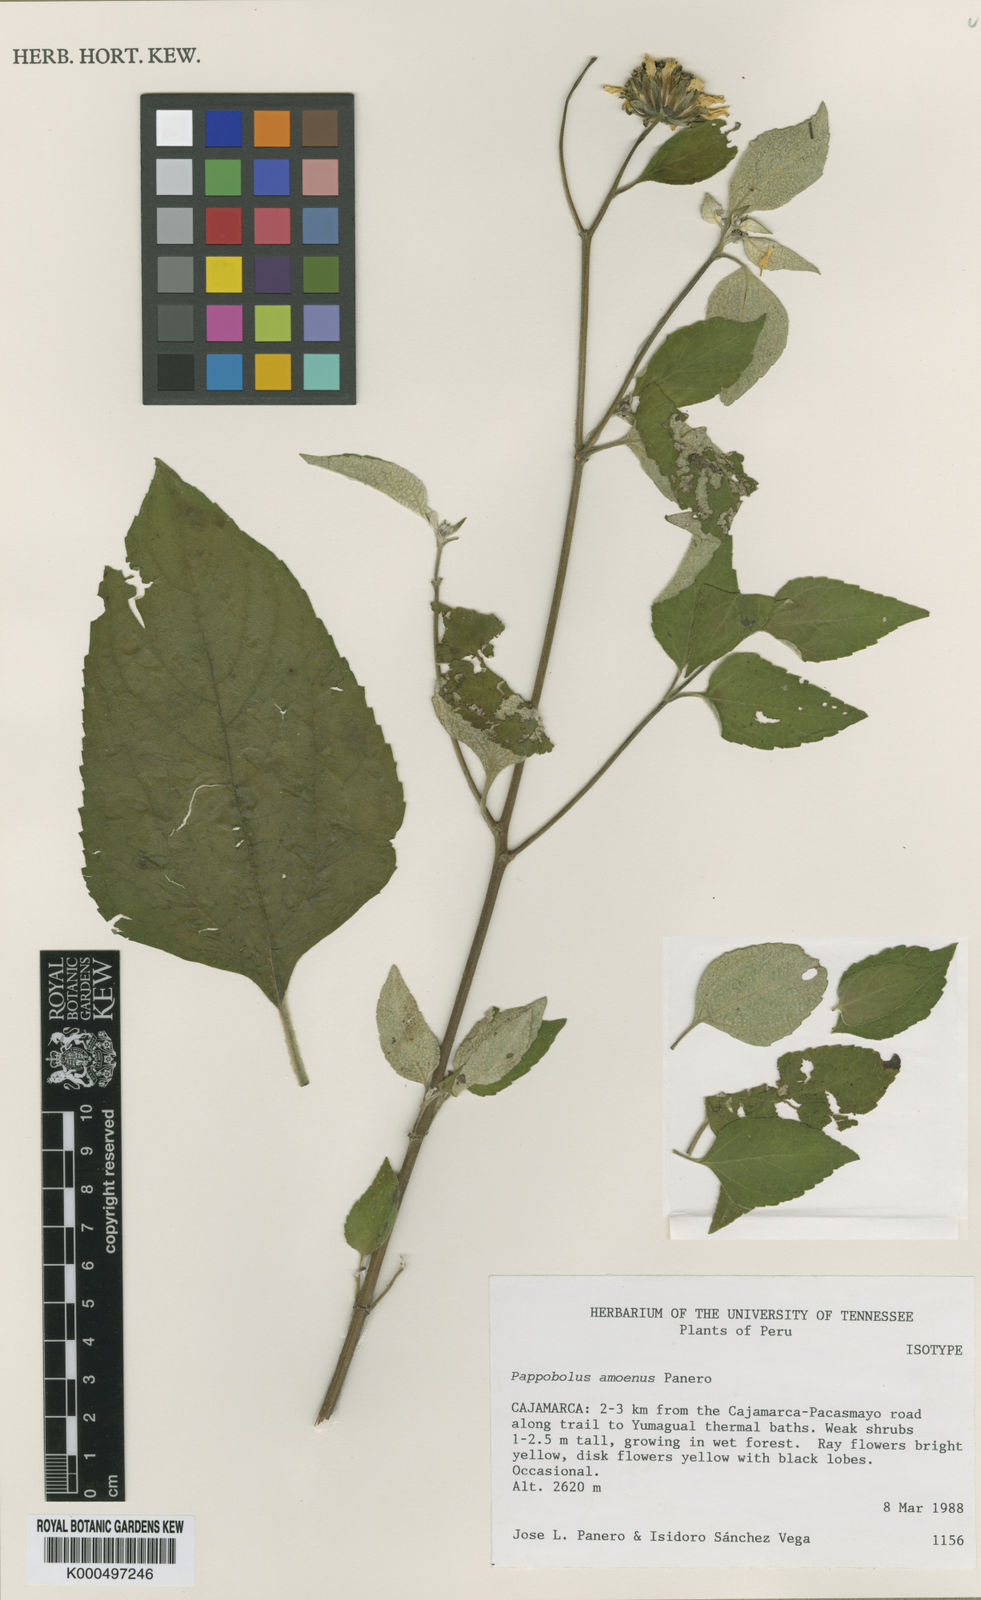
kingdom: Plantae
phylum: Tracheophyta
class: Magnoliopsida
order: Asterales
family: Asteraceae
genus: Pappobolus
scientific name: Pappobolus amoenus
